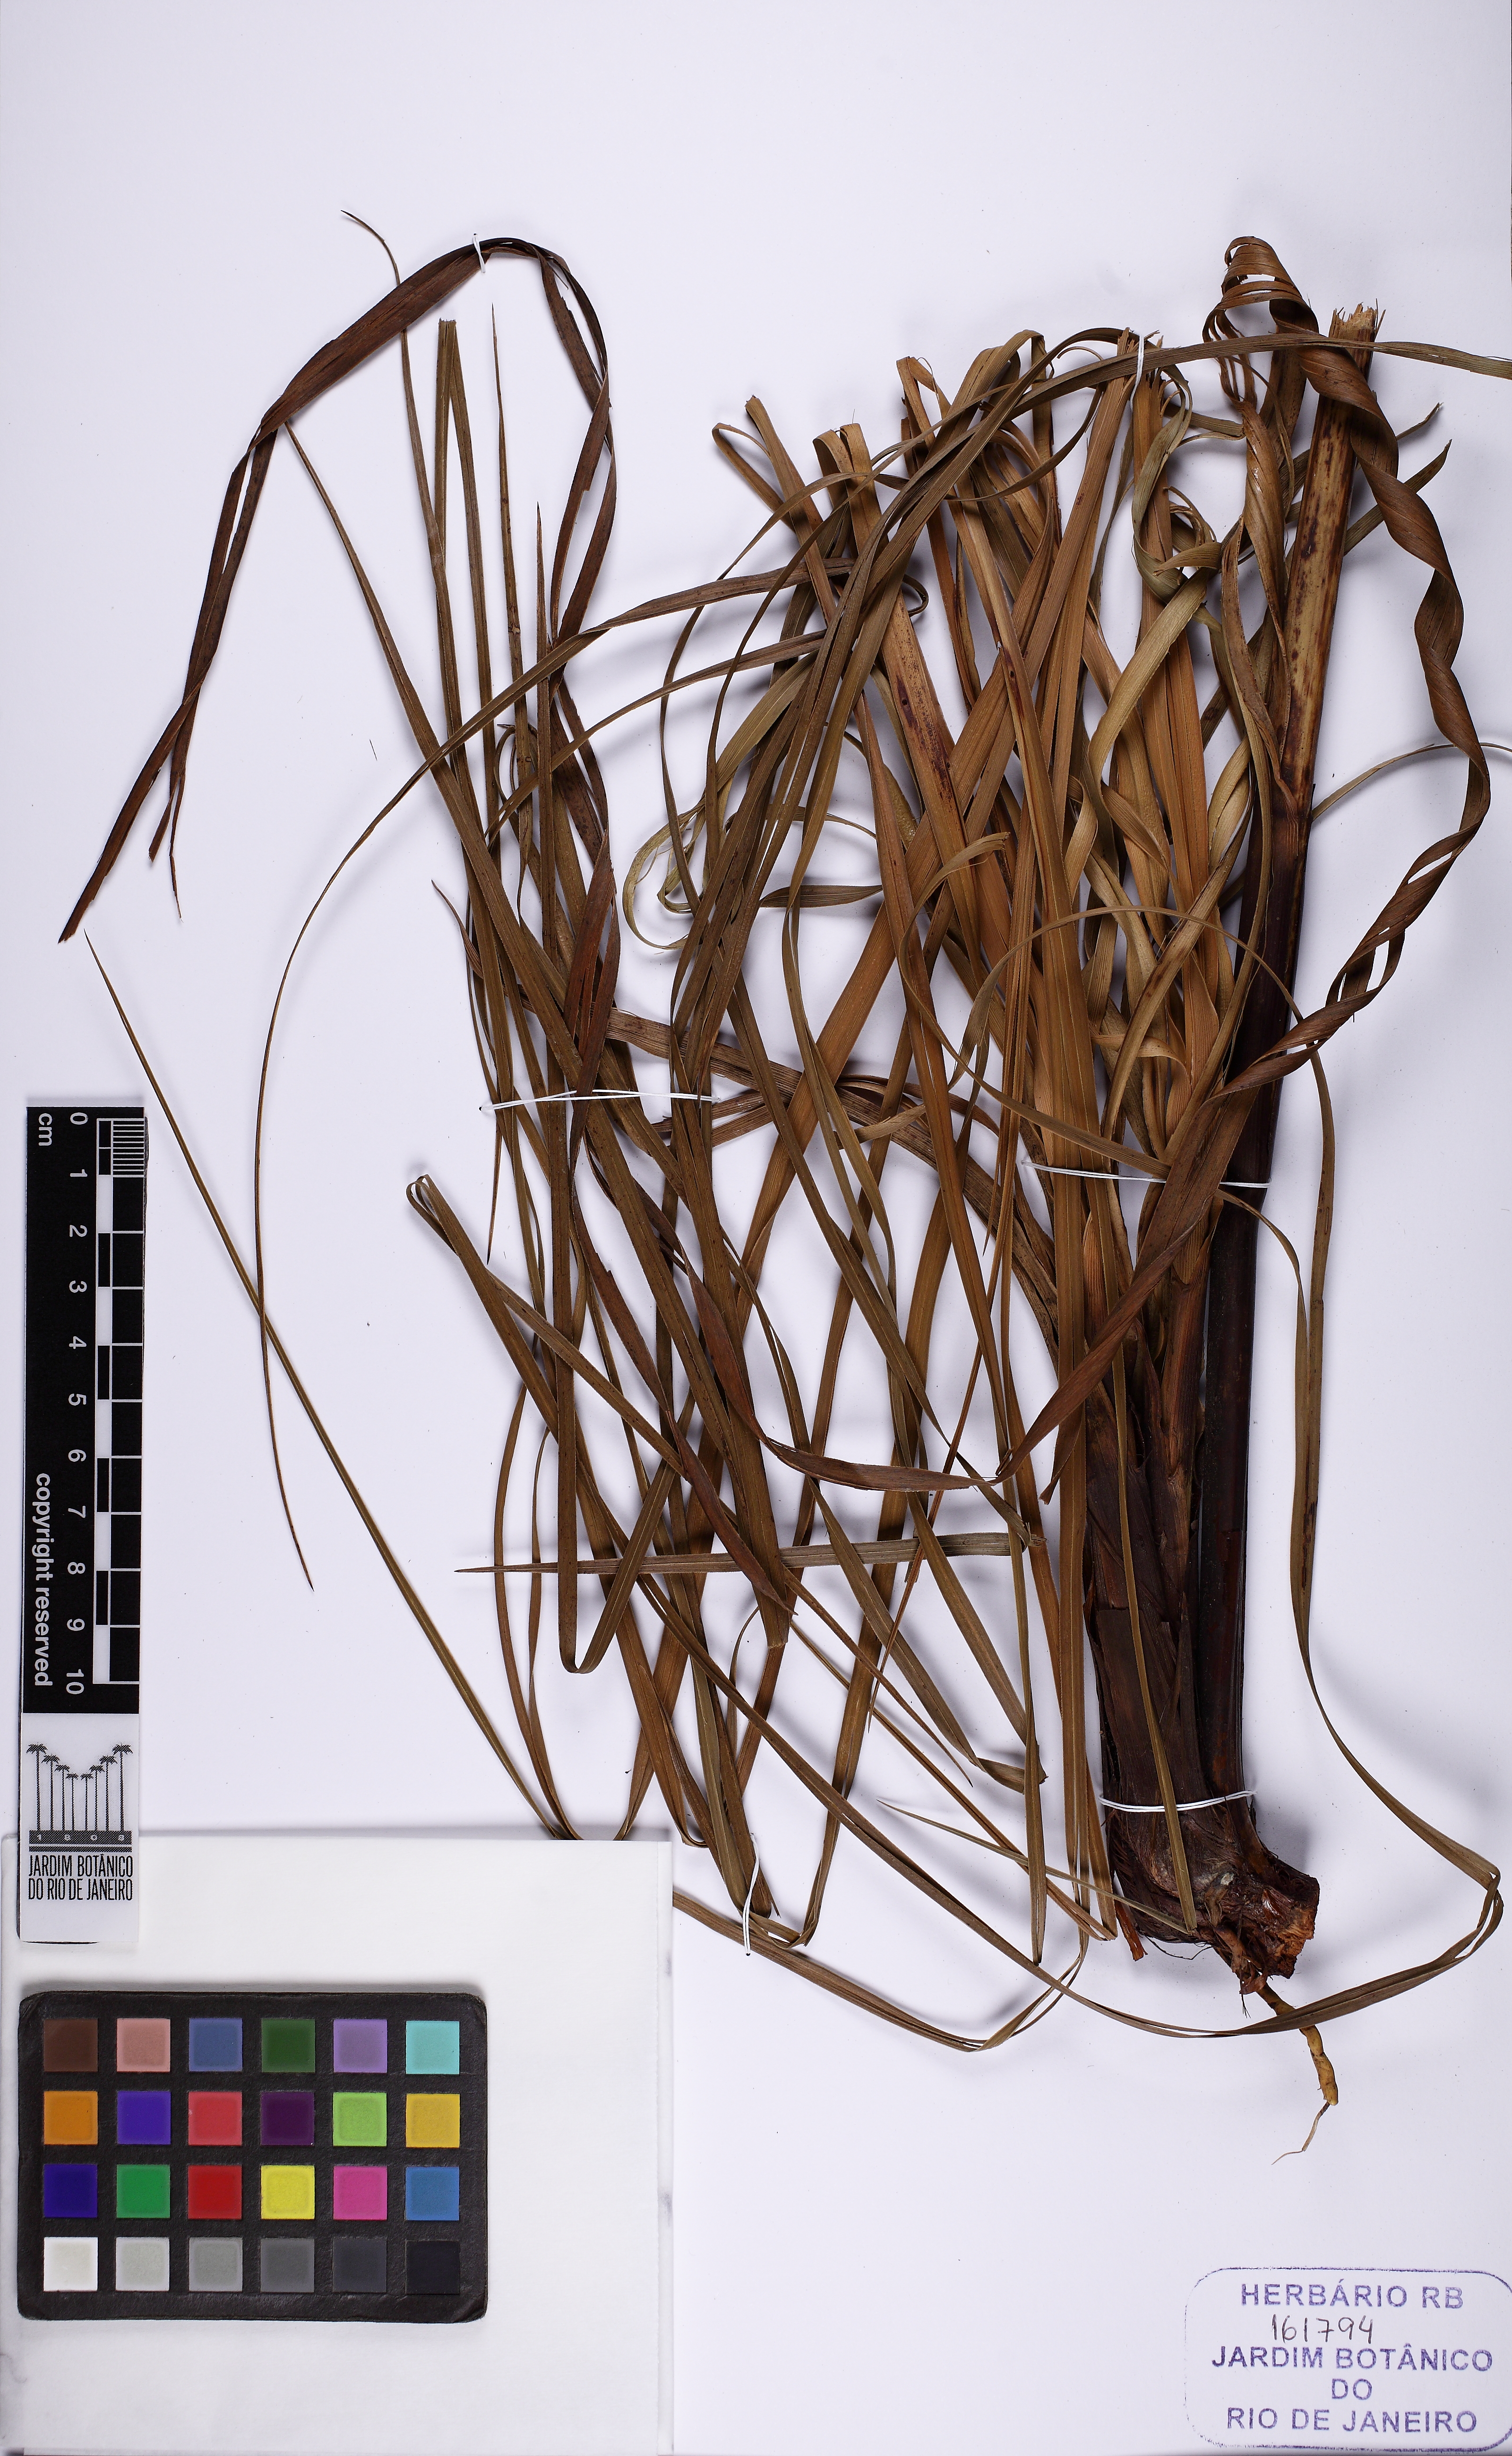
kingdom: Plantae
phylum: Tracheophyta
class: Liliopsida
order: Poales
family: Cyperaceae
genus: Lagenocarpus
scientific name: Lagenocarpus rigidus
